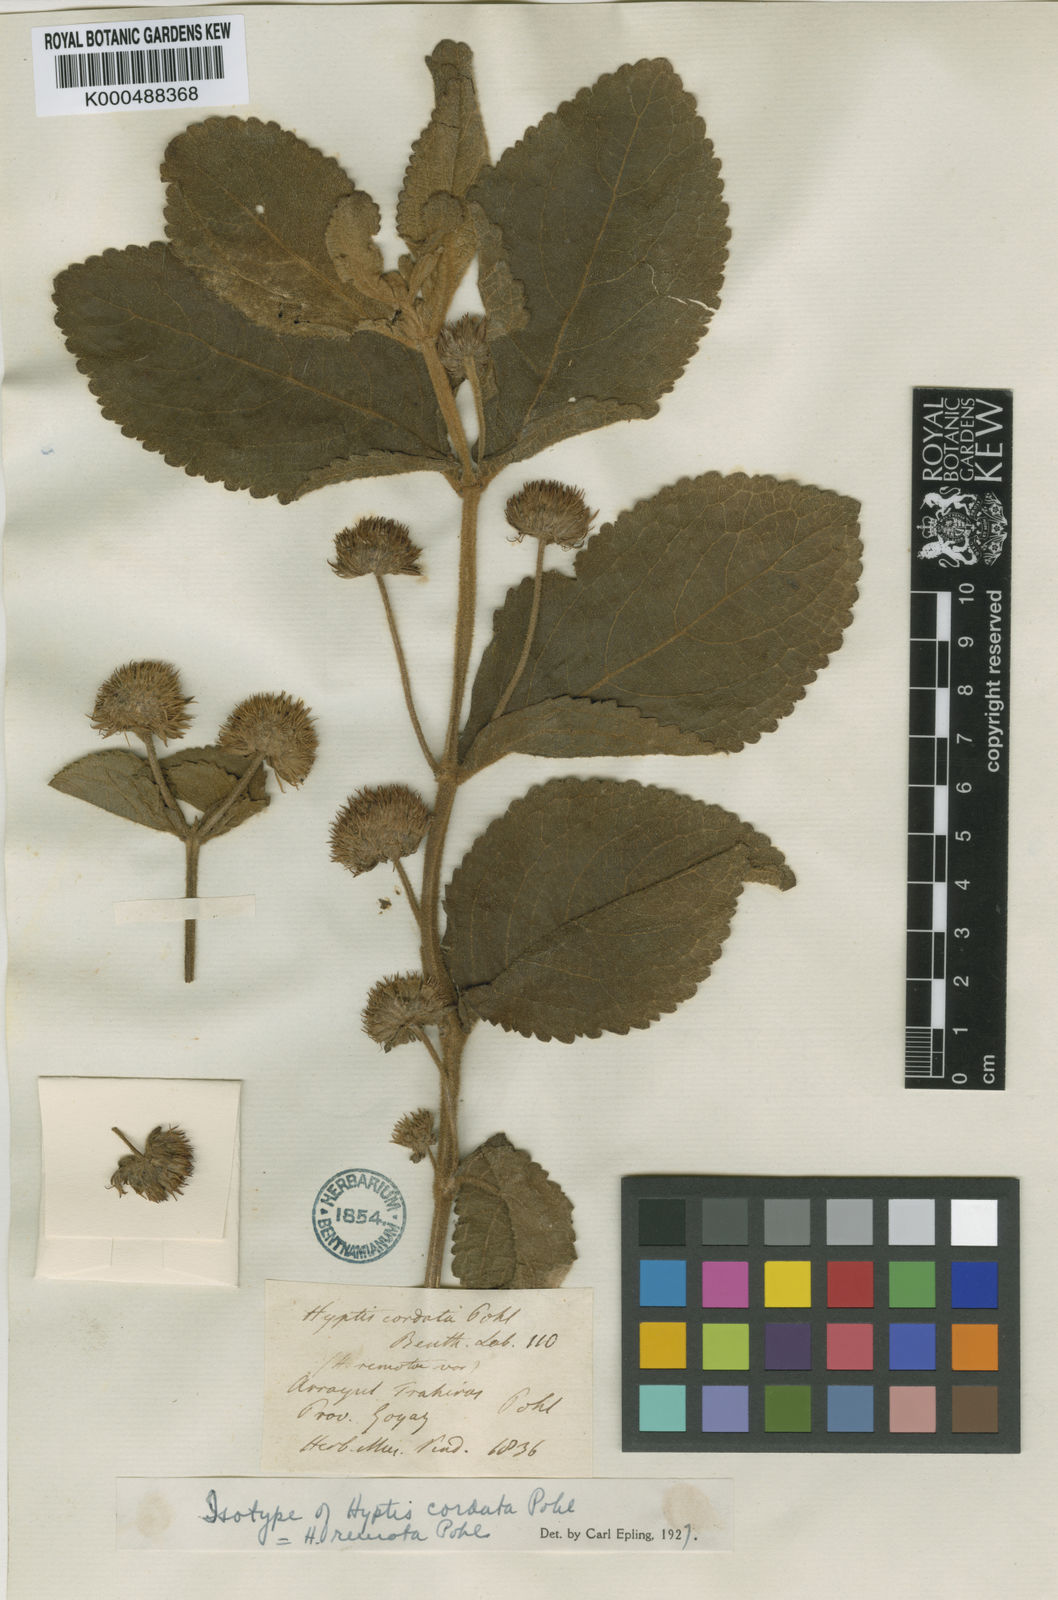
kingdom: Plantae
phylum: Tracheophyta
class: Magnoliopsida
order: Lamiales
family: Lamiaceae
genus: Hyptis
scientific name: Hyptis remota
